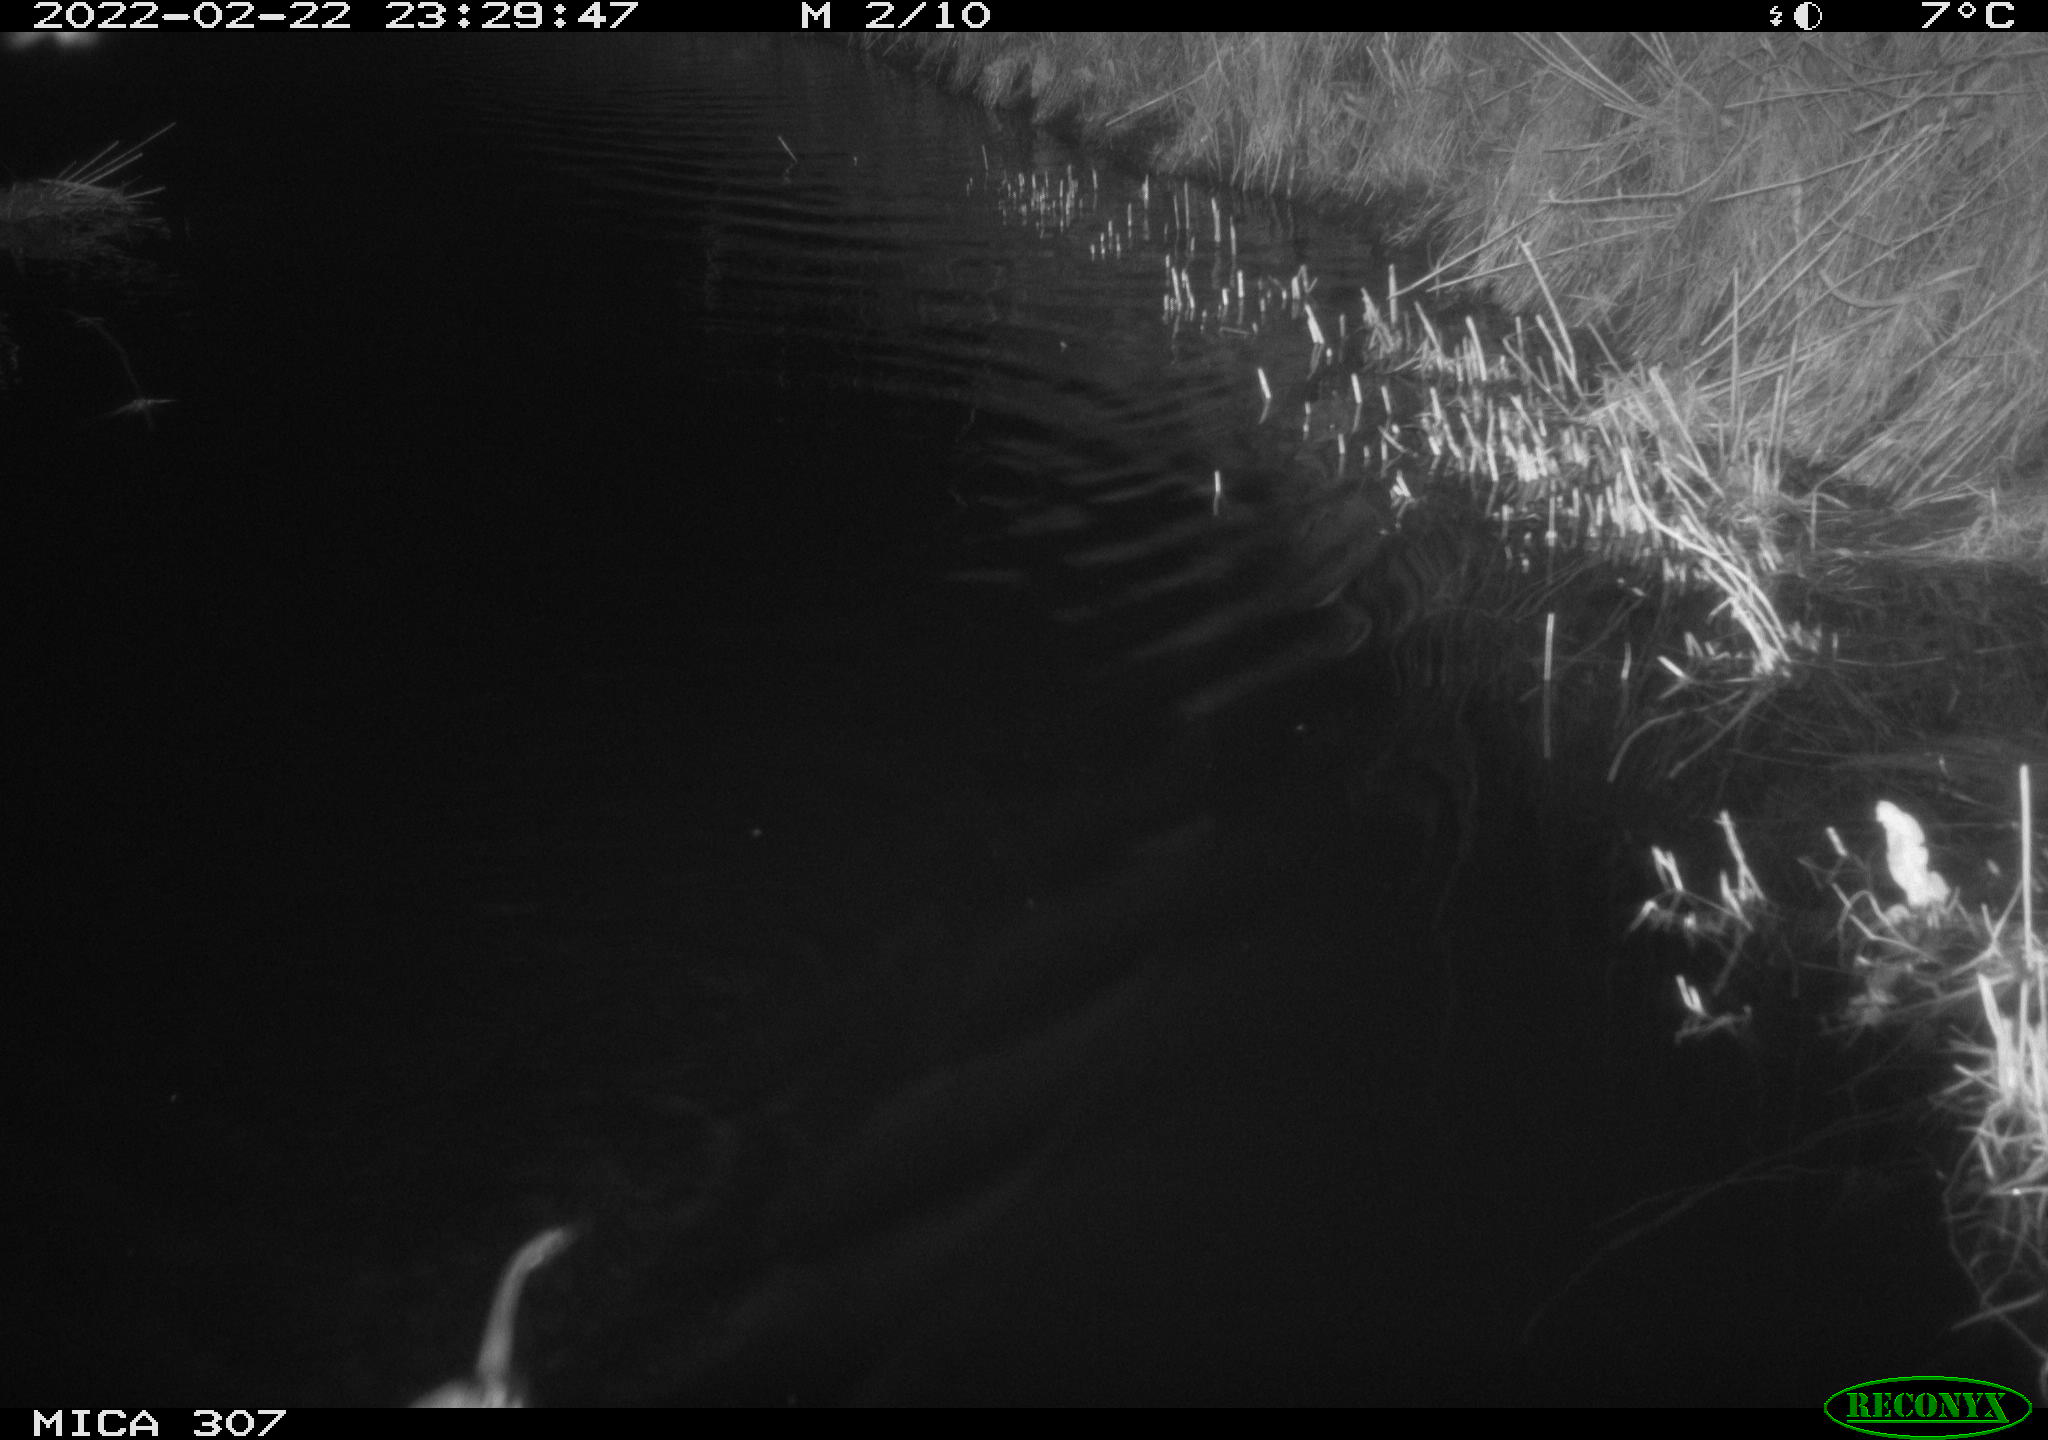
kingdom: Animalia
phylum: Chordata
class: Mammalia
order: Rodentia
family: Cricetidae
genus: Ondatra
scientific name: Ondatra zibethicus
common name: Muskrat
